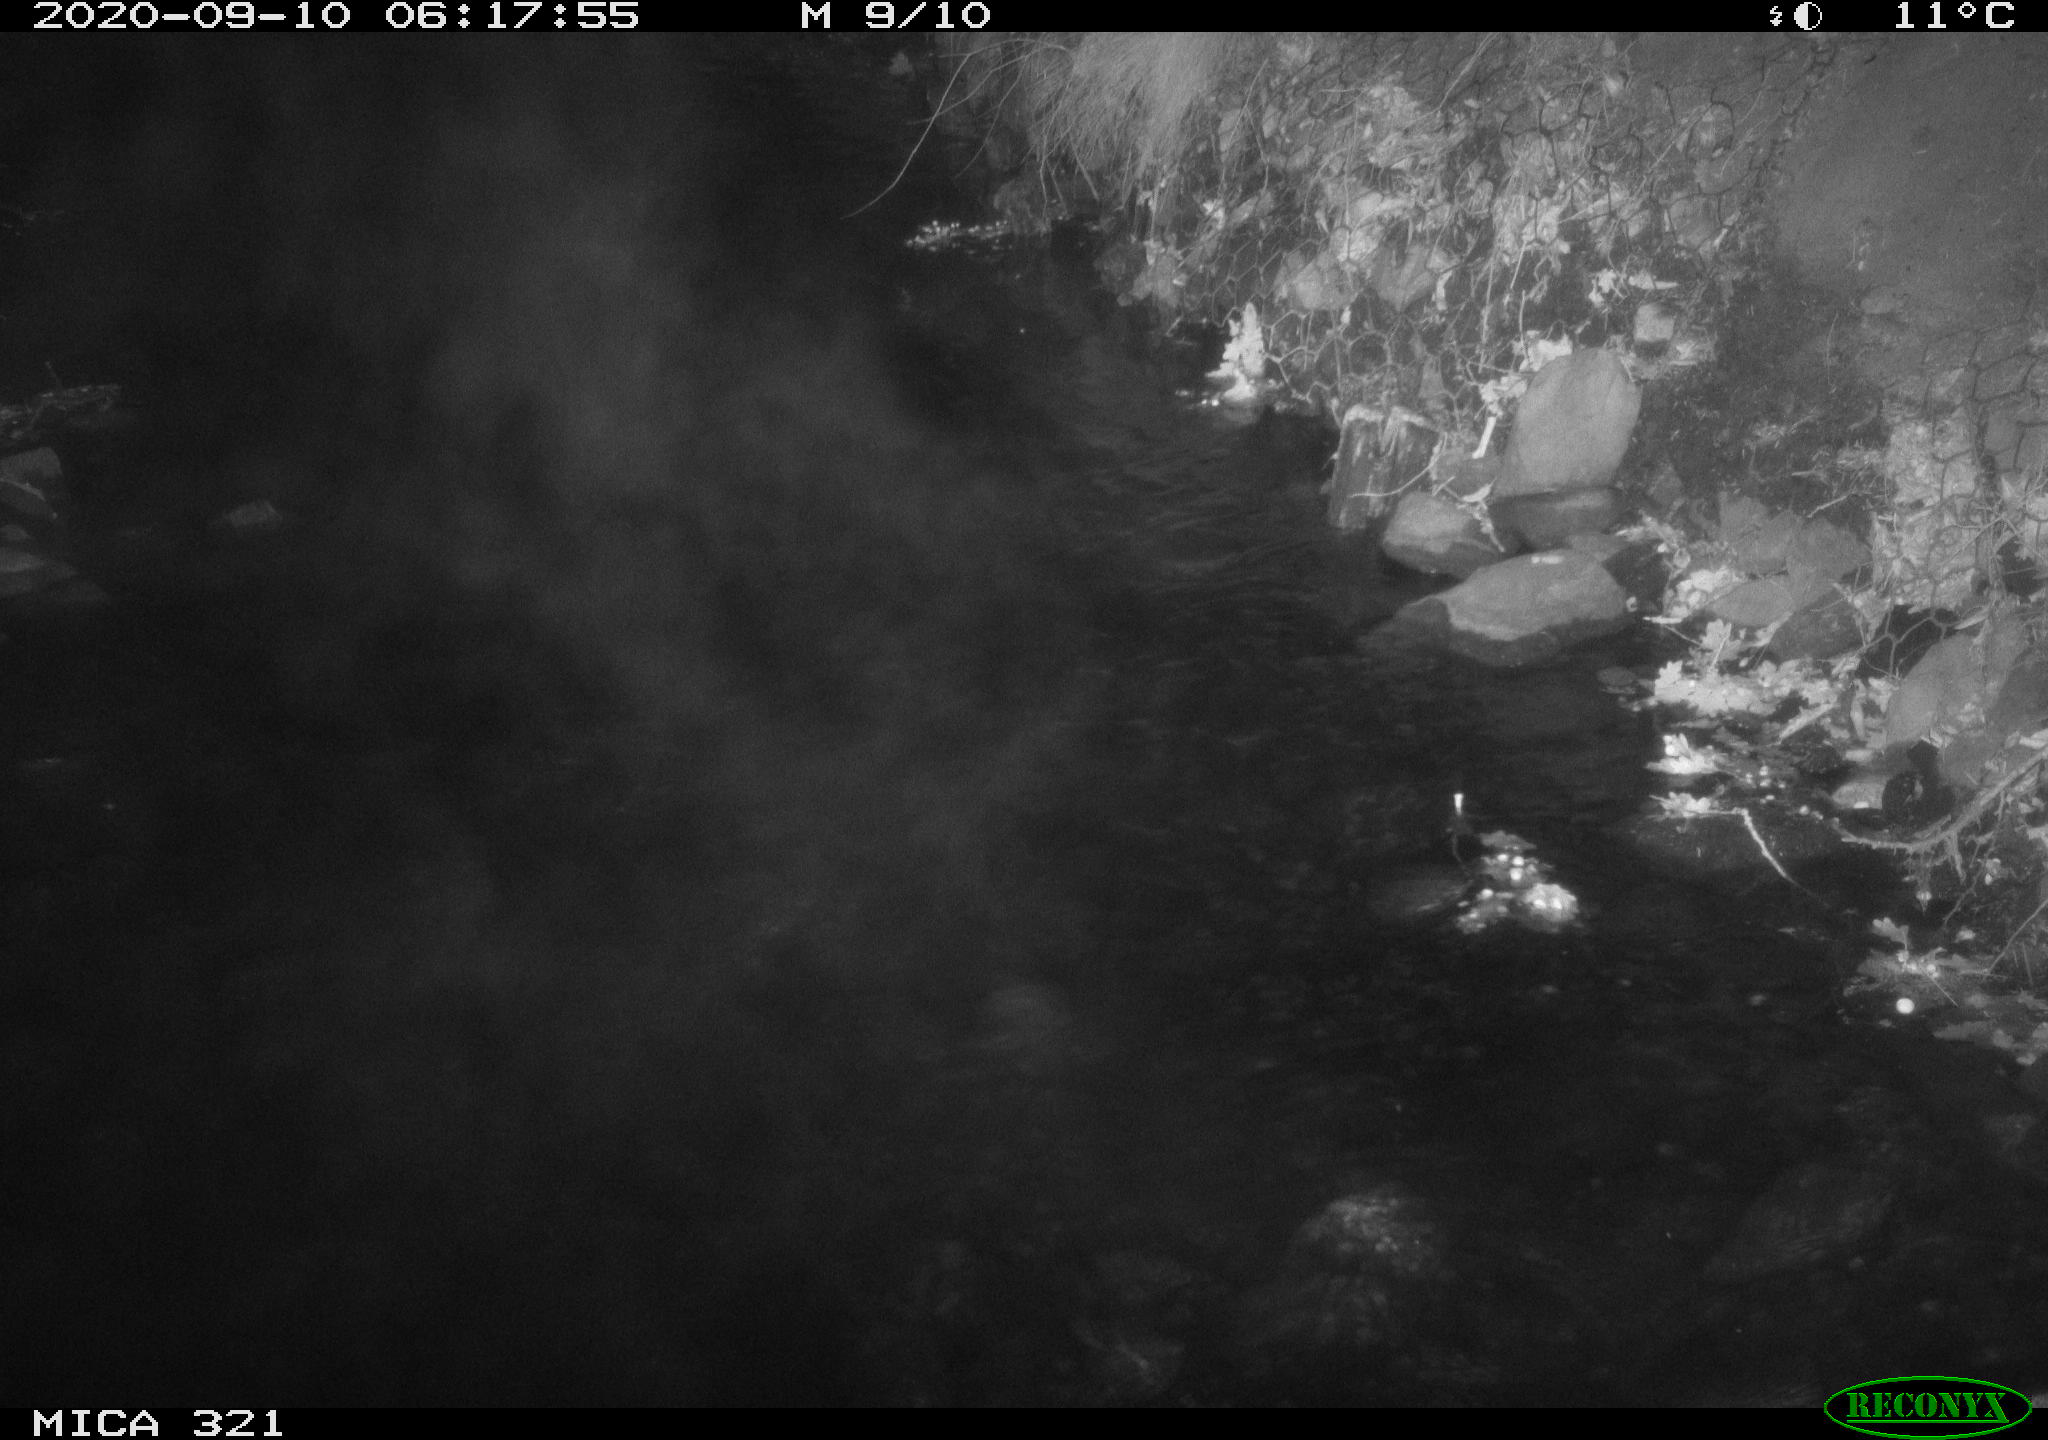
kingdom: Animalia
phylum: Chordata
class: Aves
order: Anseriformes
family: Anatidae
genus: Anas
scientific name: Anas platyrhynchos
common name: Mallard
